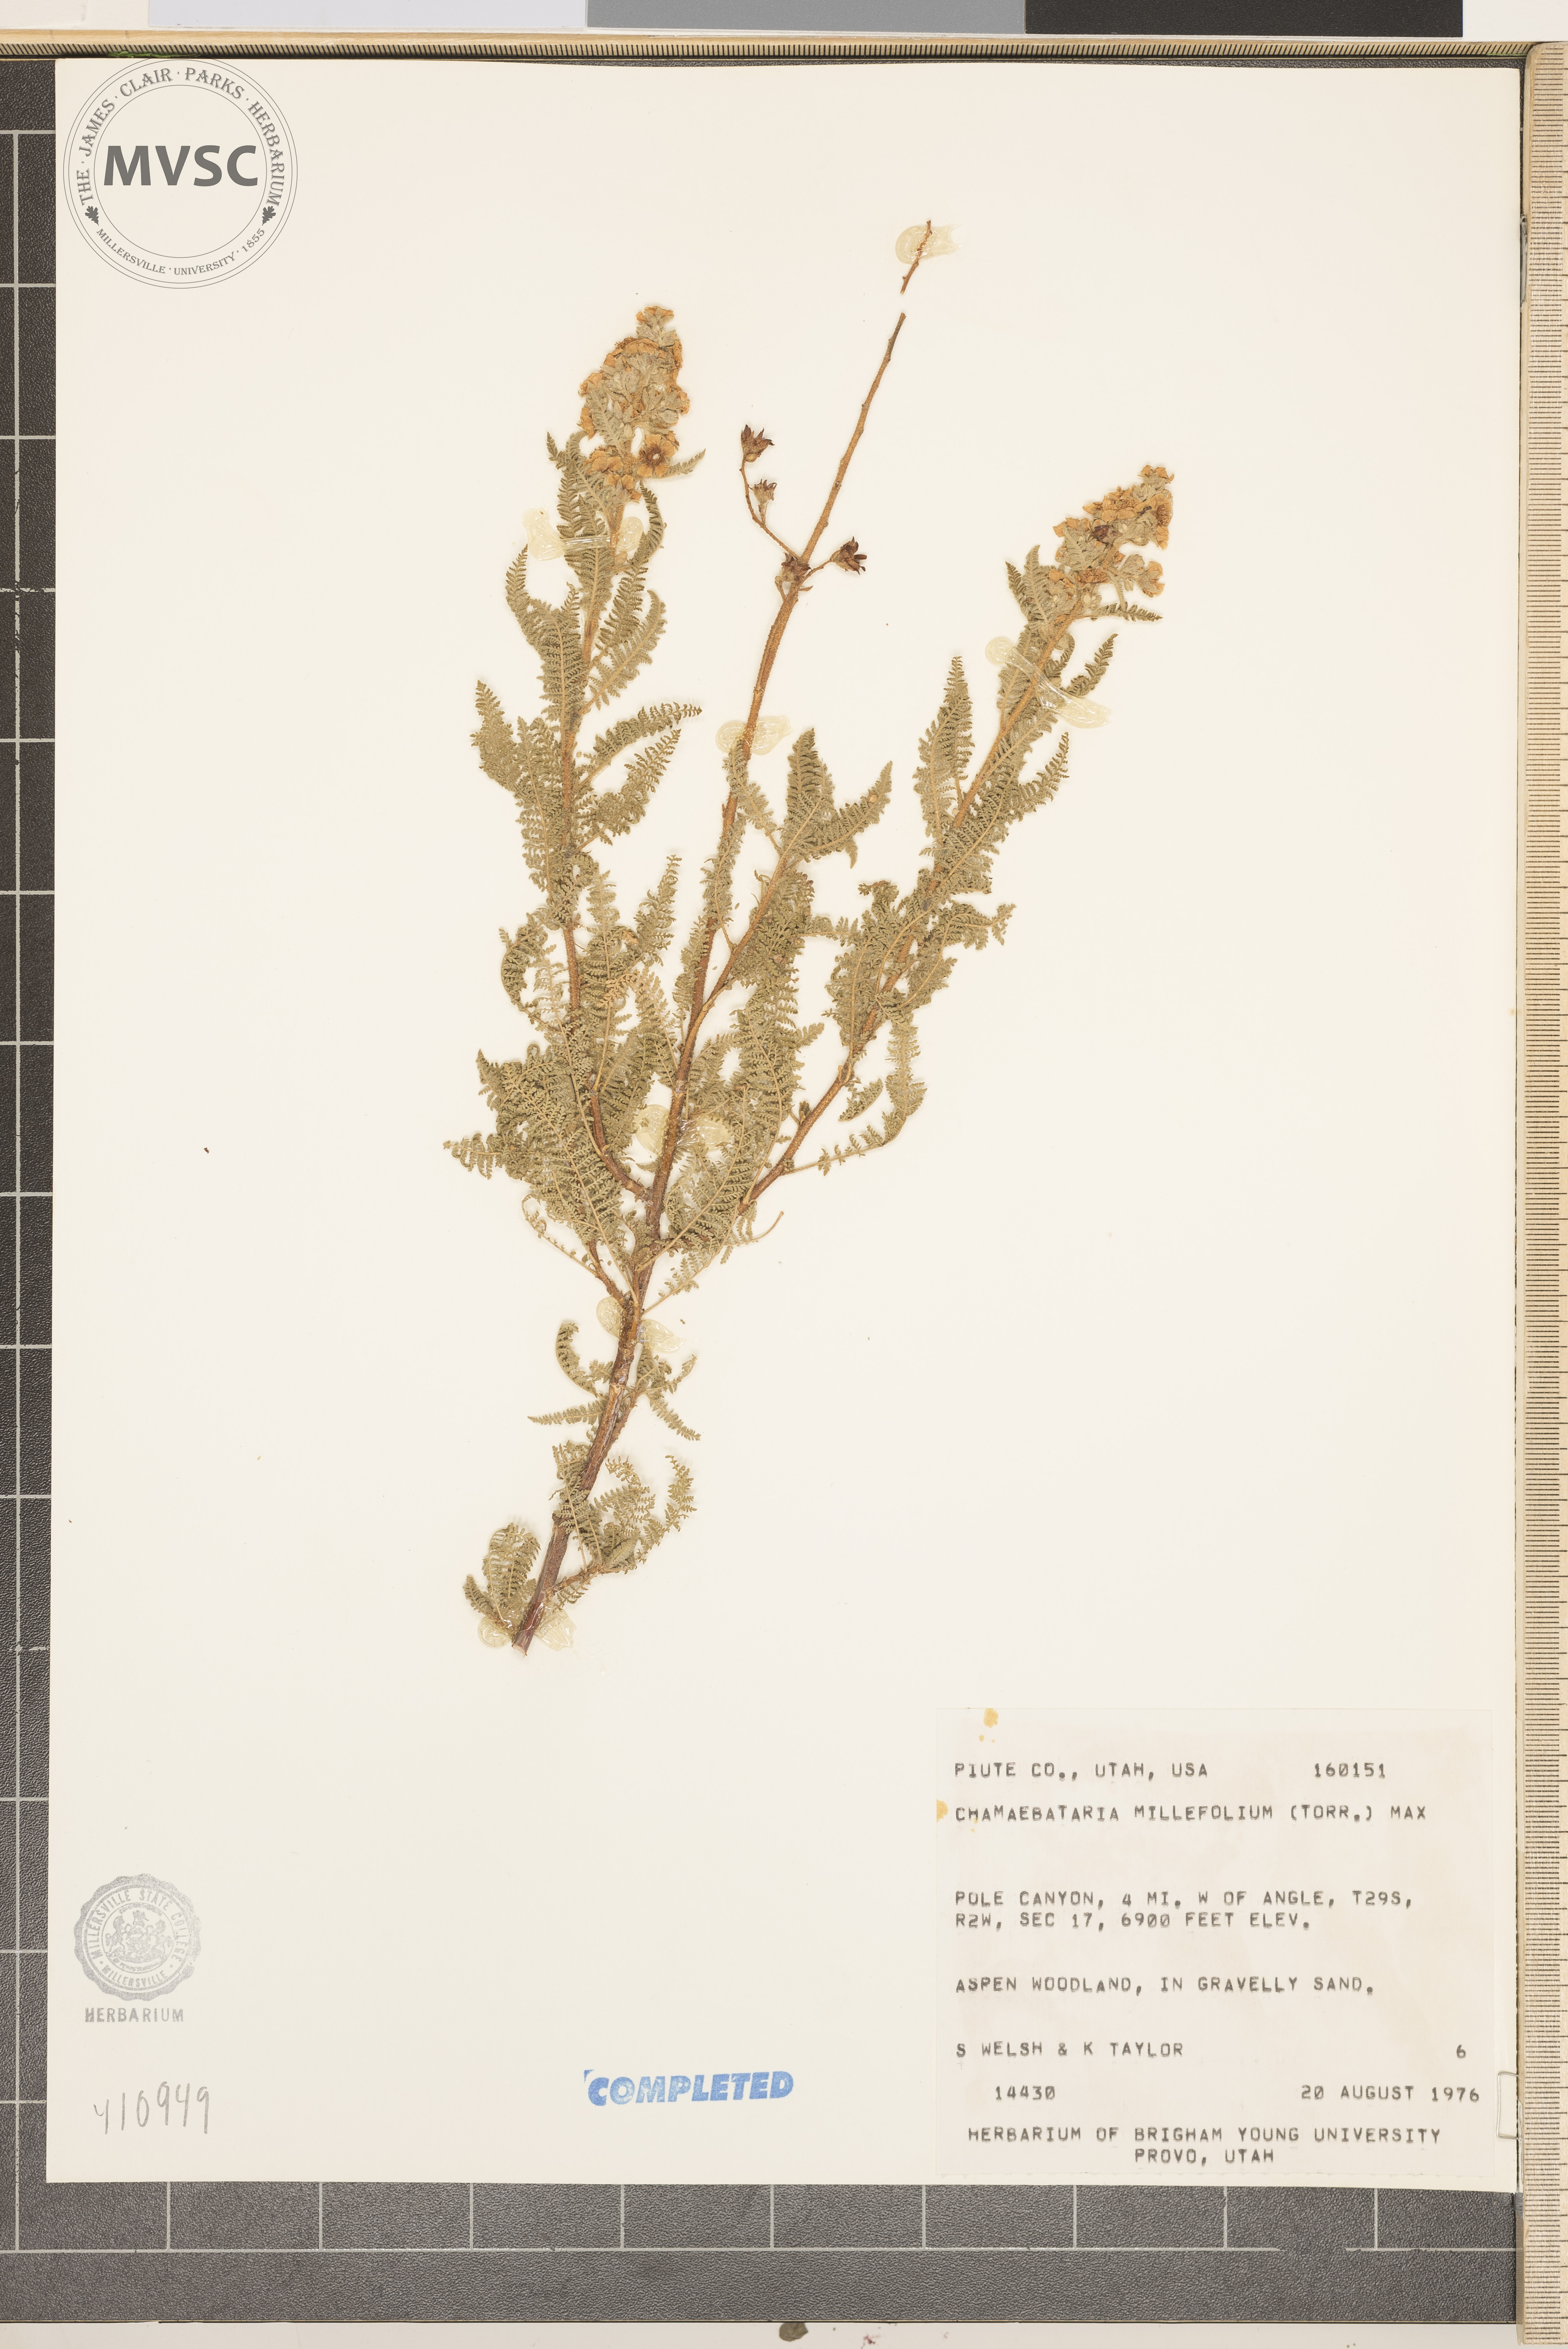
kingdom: Plantae
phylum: Tracheophyta
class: Magnoliopsida
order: Rosales
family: Rosaceae
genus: Chamaebatiaria
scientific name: Chamaebatiaria millefolium
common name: Fernbush
